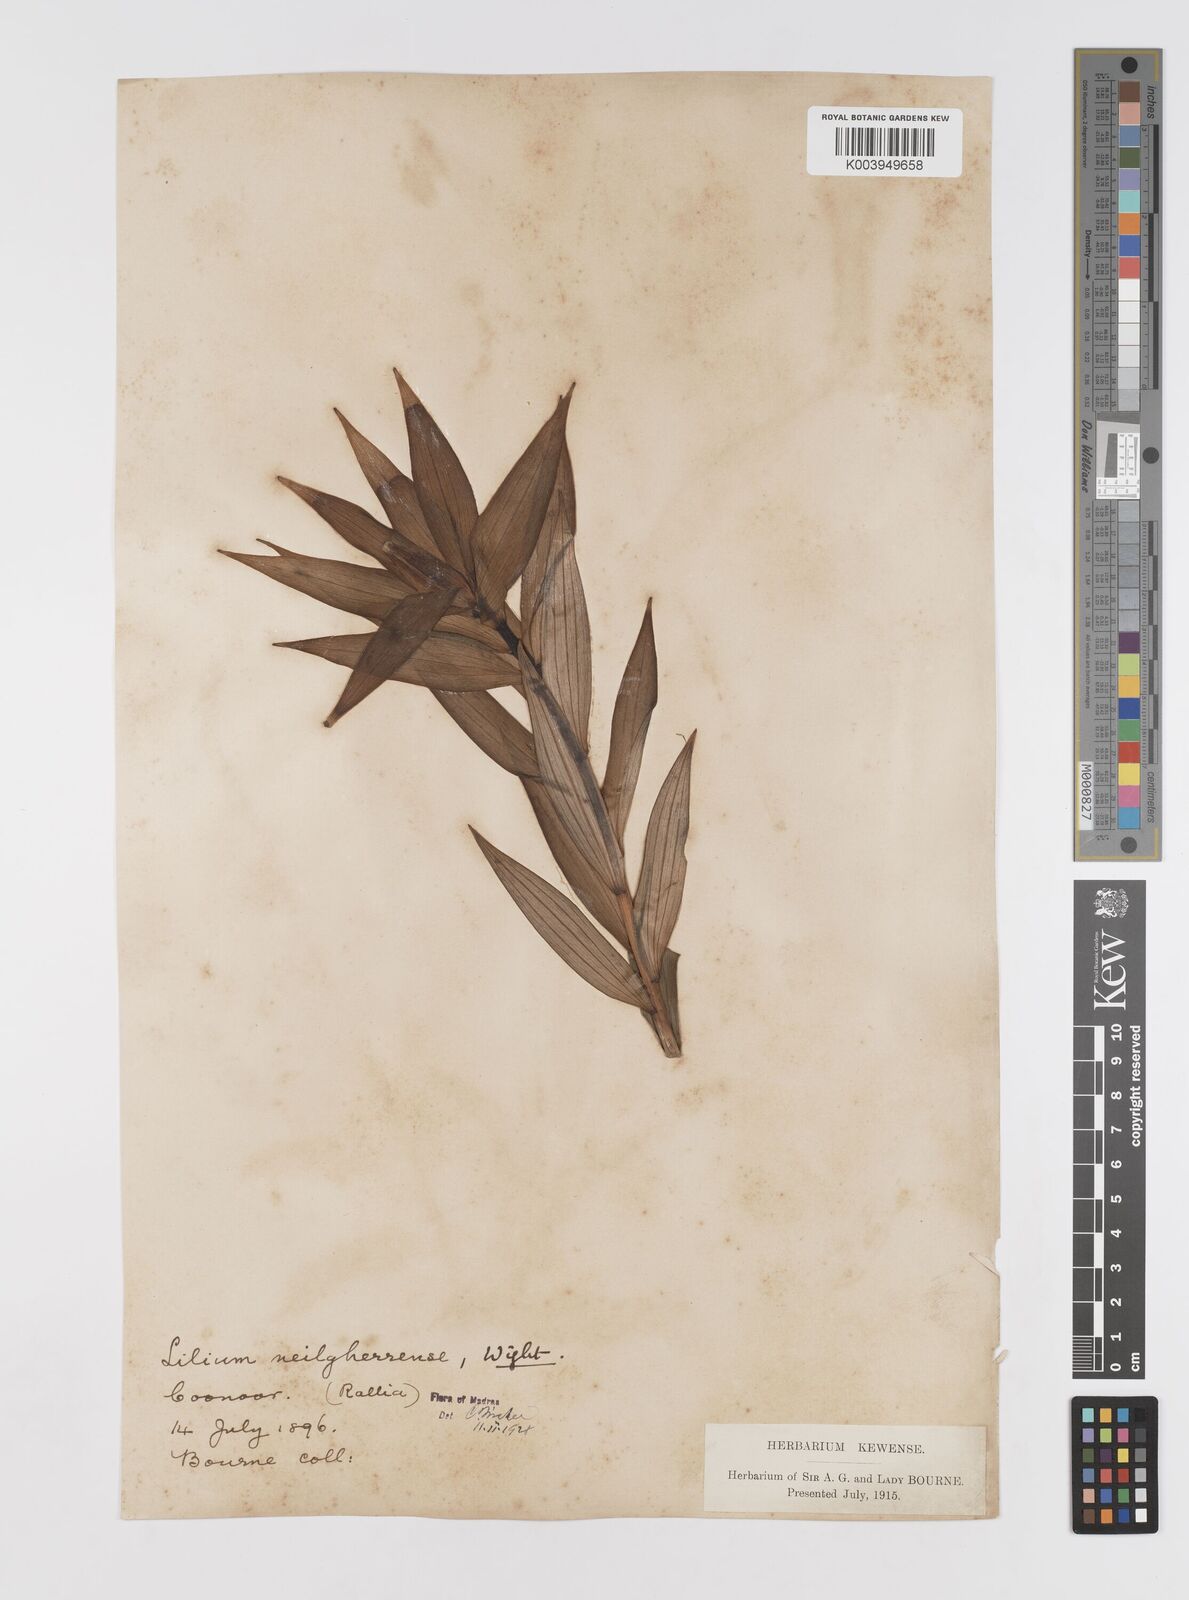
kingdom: Plantae
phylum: Tracheophyta
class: Liliopsida
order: Liliales
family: Liliaceae
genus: Lilium
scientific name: Lilium wallichianum
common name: Wallich's lily
